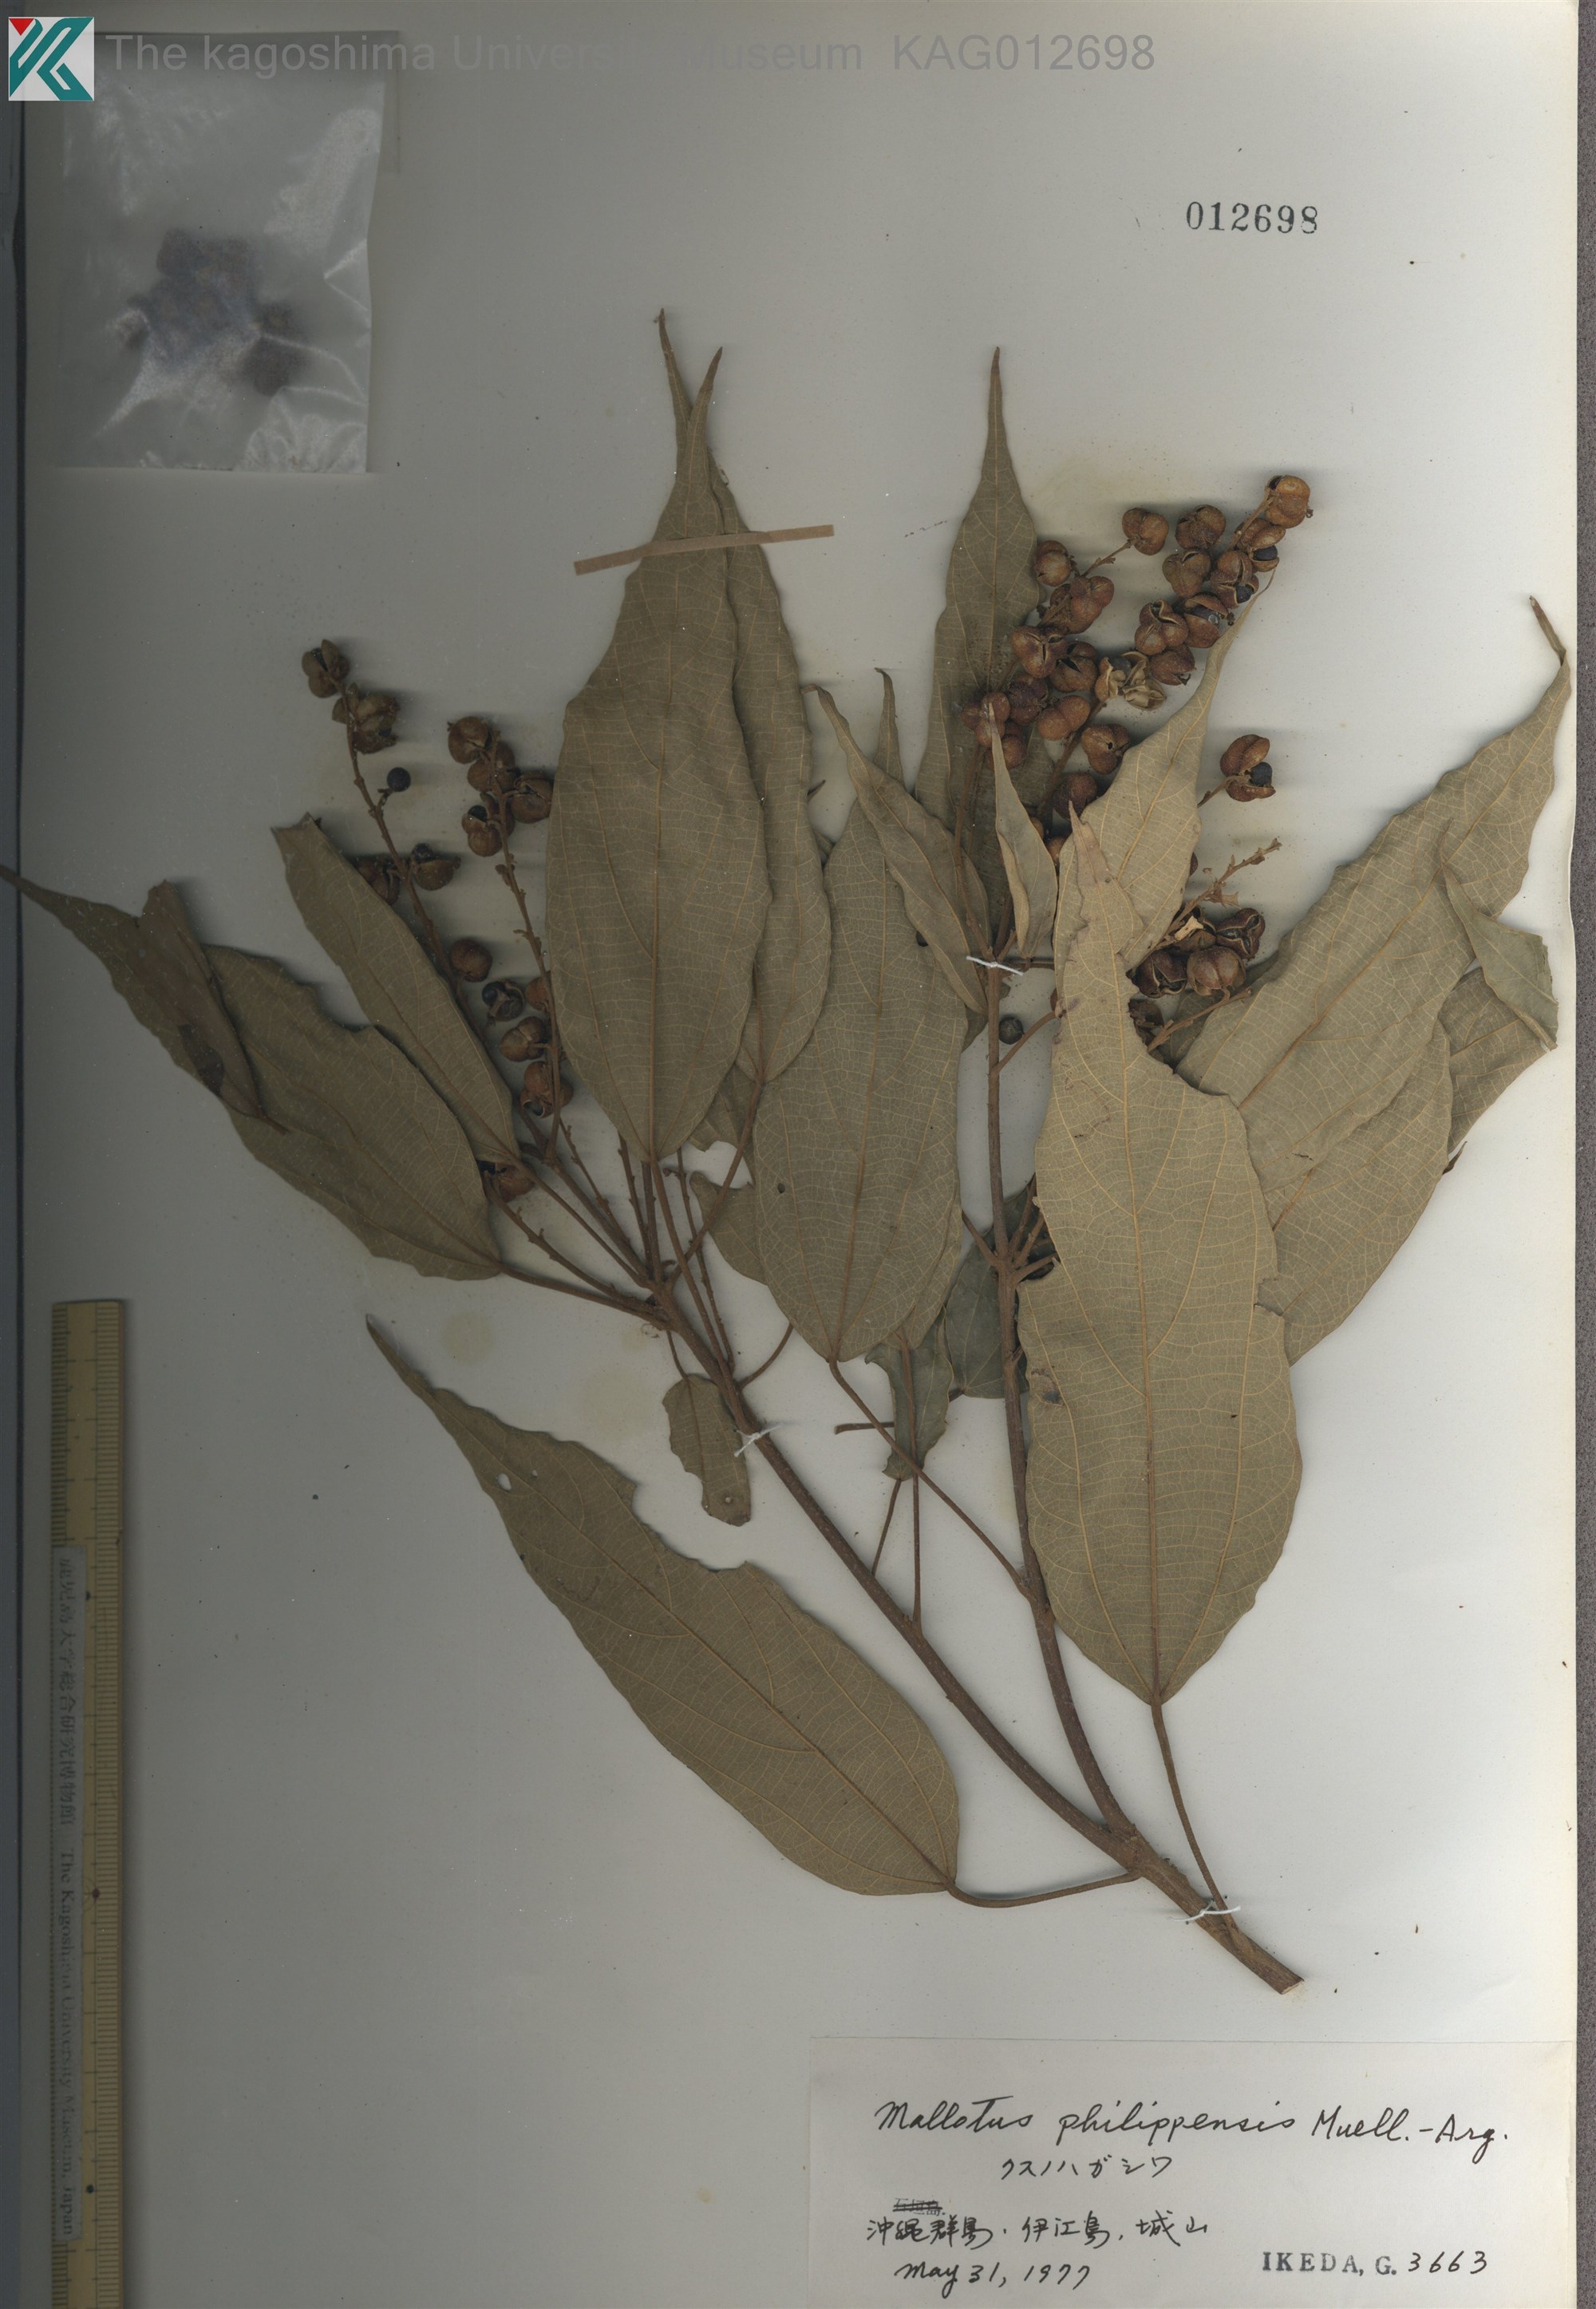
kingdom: Plantae
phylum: Tracheophyta
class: Magnoliopsida
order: Malpighiales
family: Euphorbiaceae
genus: Mallotus
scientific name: Mallotus philippensis
